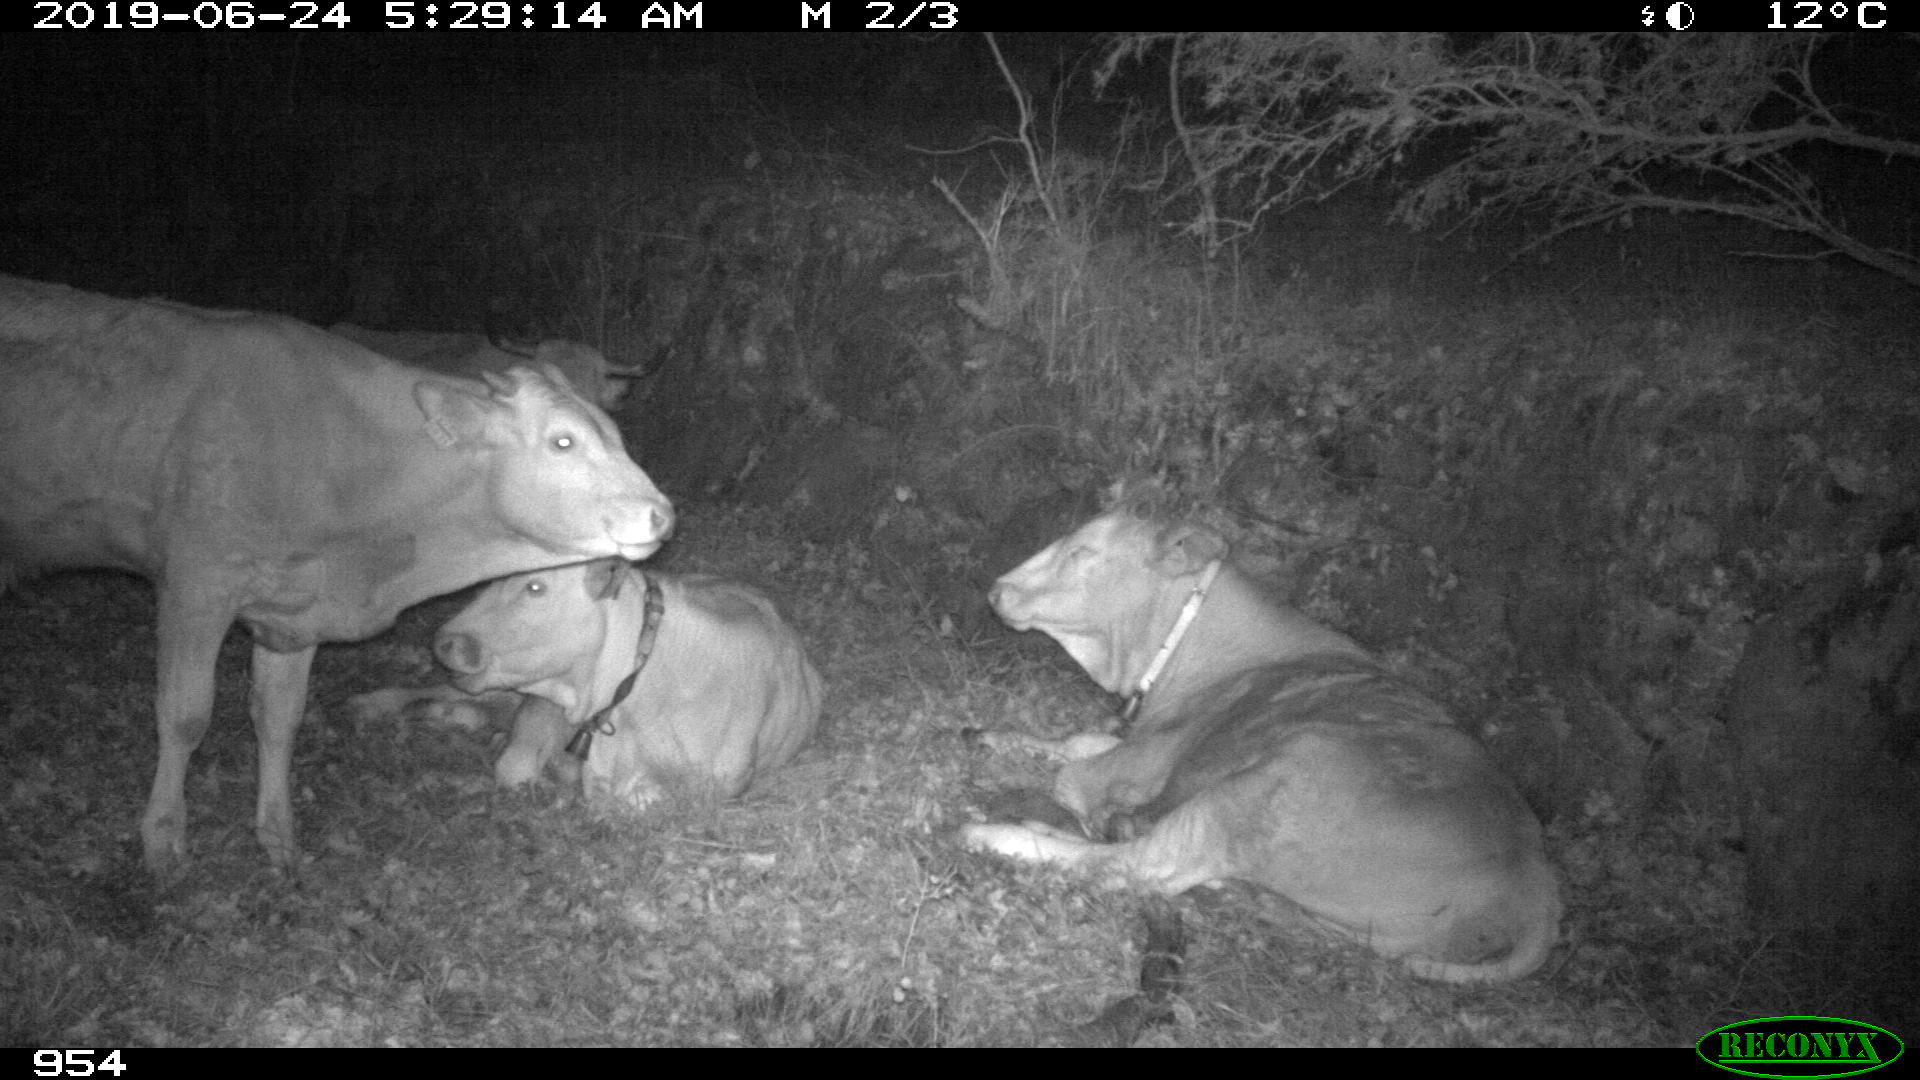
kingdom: Animalia
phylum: Chordata
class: Mammalia
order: Artiodactyla
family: Bovidae
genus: Bos
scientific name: Bos taurus
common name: Domesticated cattle
